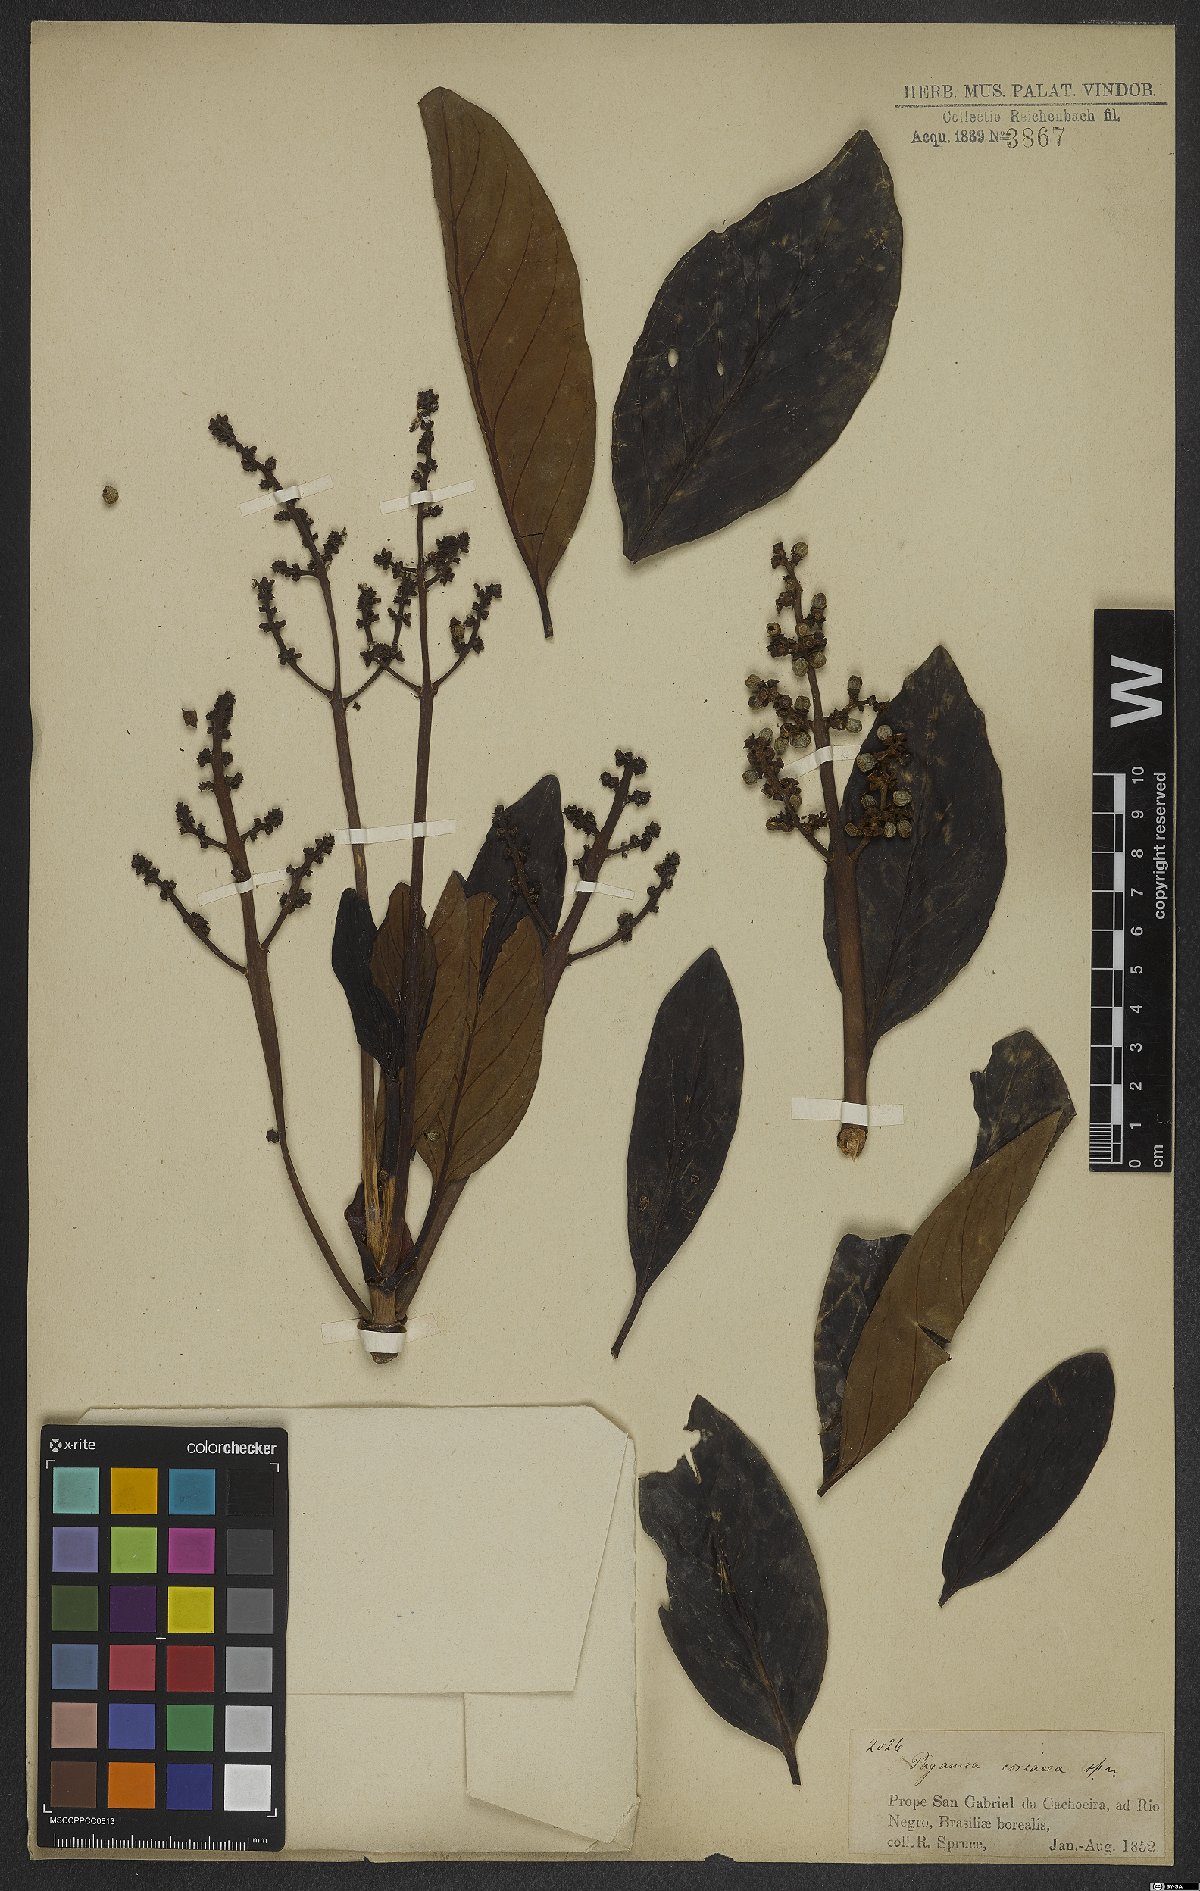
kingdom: Plantae
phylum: Tracheophyta
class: Magnoliopsida
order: Gentianales
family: Rubiaceae
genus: Pagamea
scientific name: Pagamea coriacea
